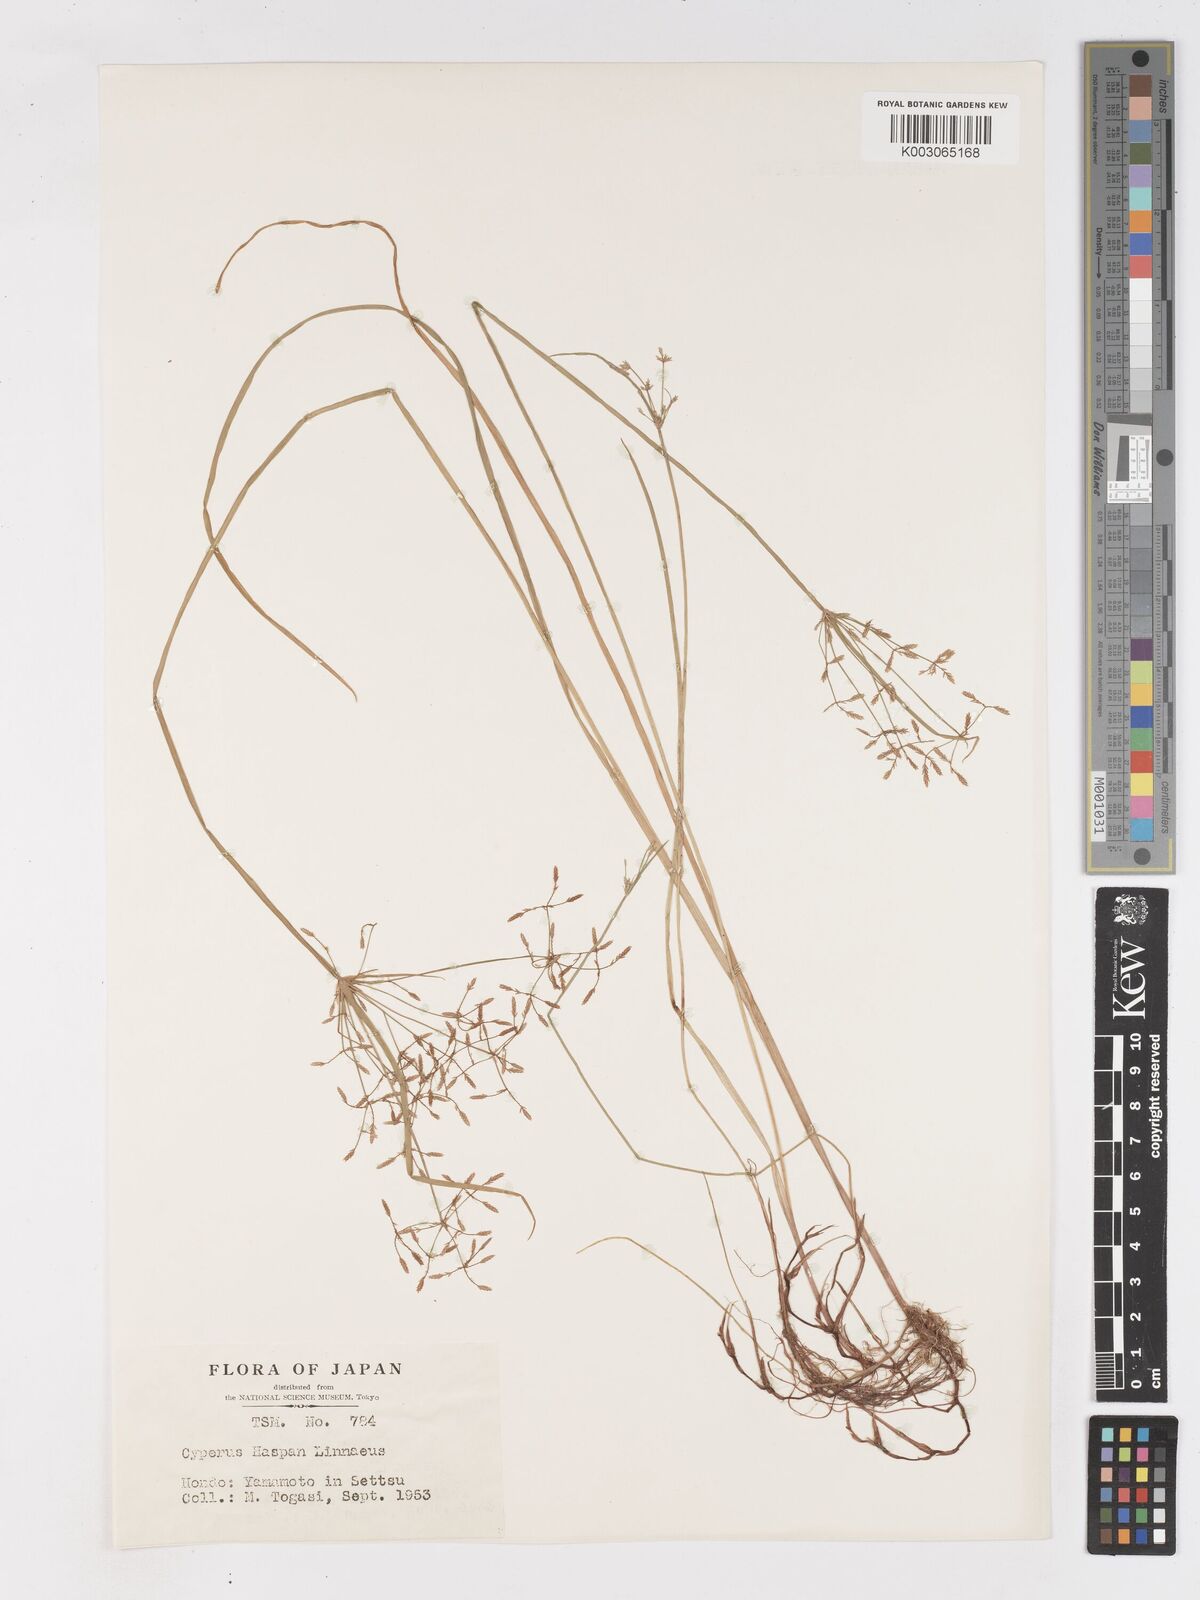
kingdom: Plantae
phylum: Tracheophyta
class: Liliopsida
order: Poales
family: Cyperaceae
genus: Cyperus
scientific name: Cyperus haspan
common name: Haspan flatsedge
